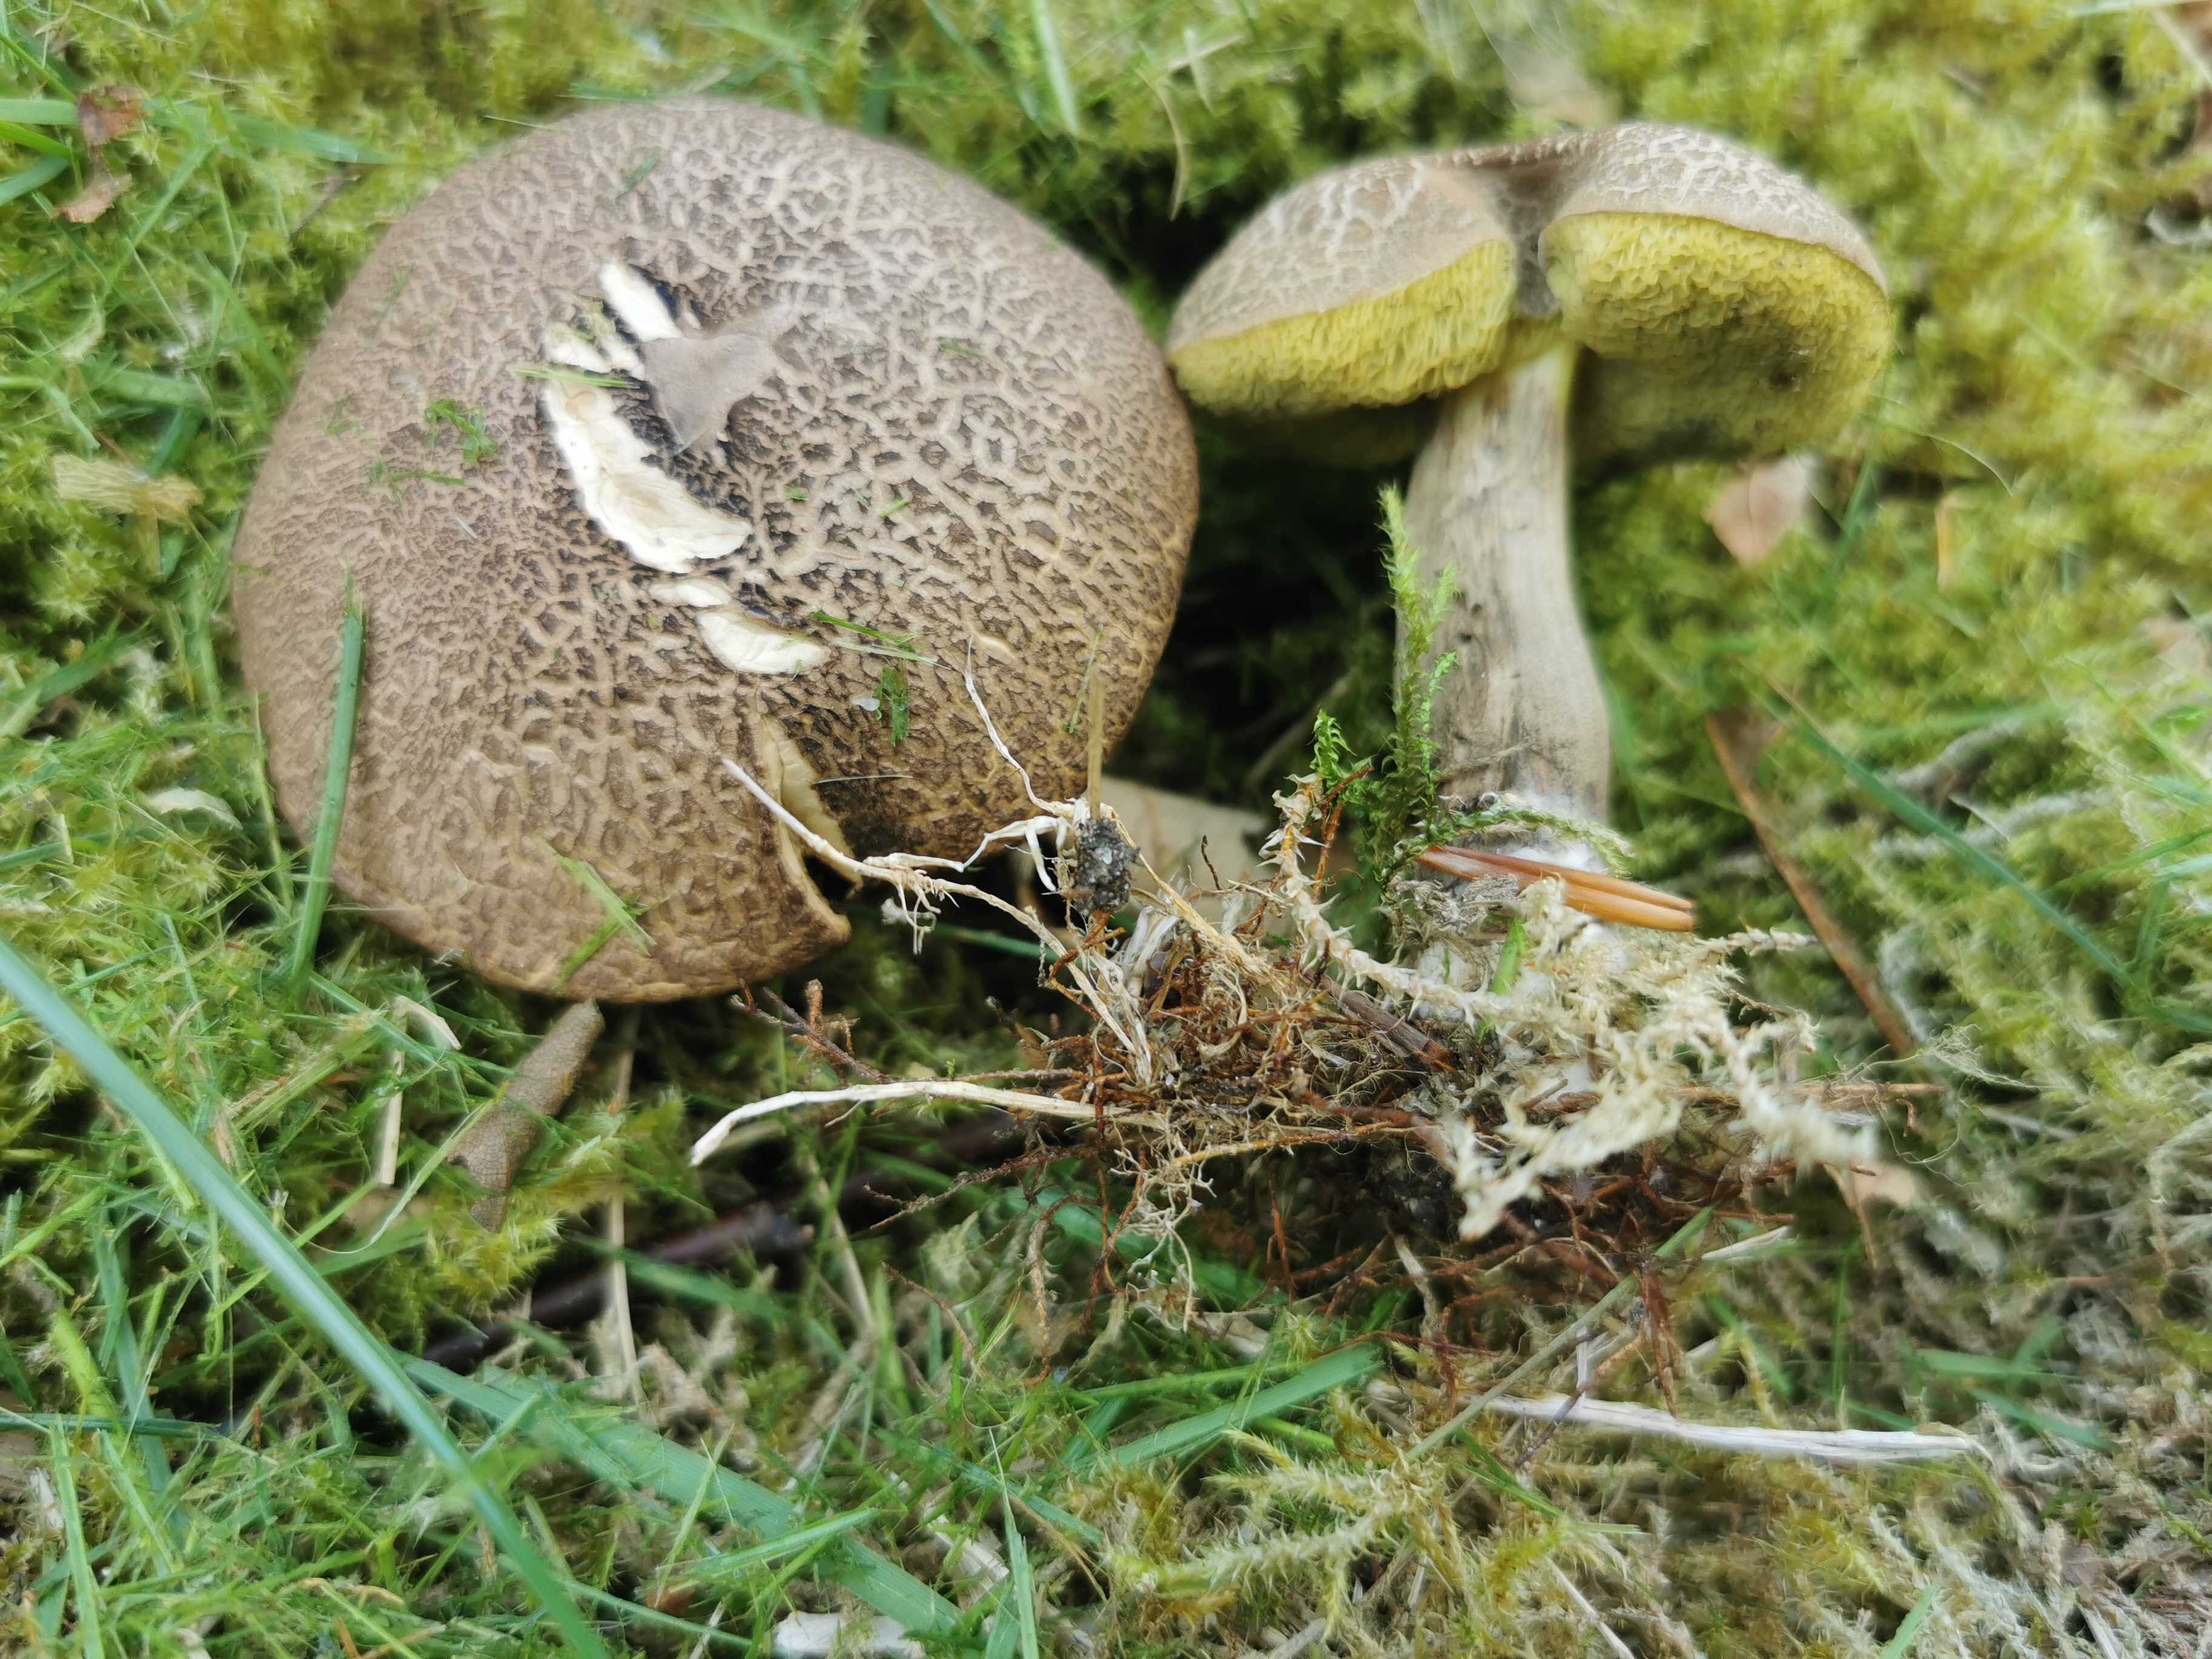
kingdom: Fungi
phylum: Basidiomycota
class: Agaricomycetes
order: Boletales
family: Boletaceae
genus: Xerocomellus
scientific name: Xerocomellus porosporus
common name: hvidsprukken rørhat
